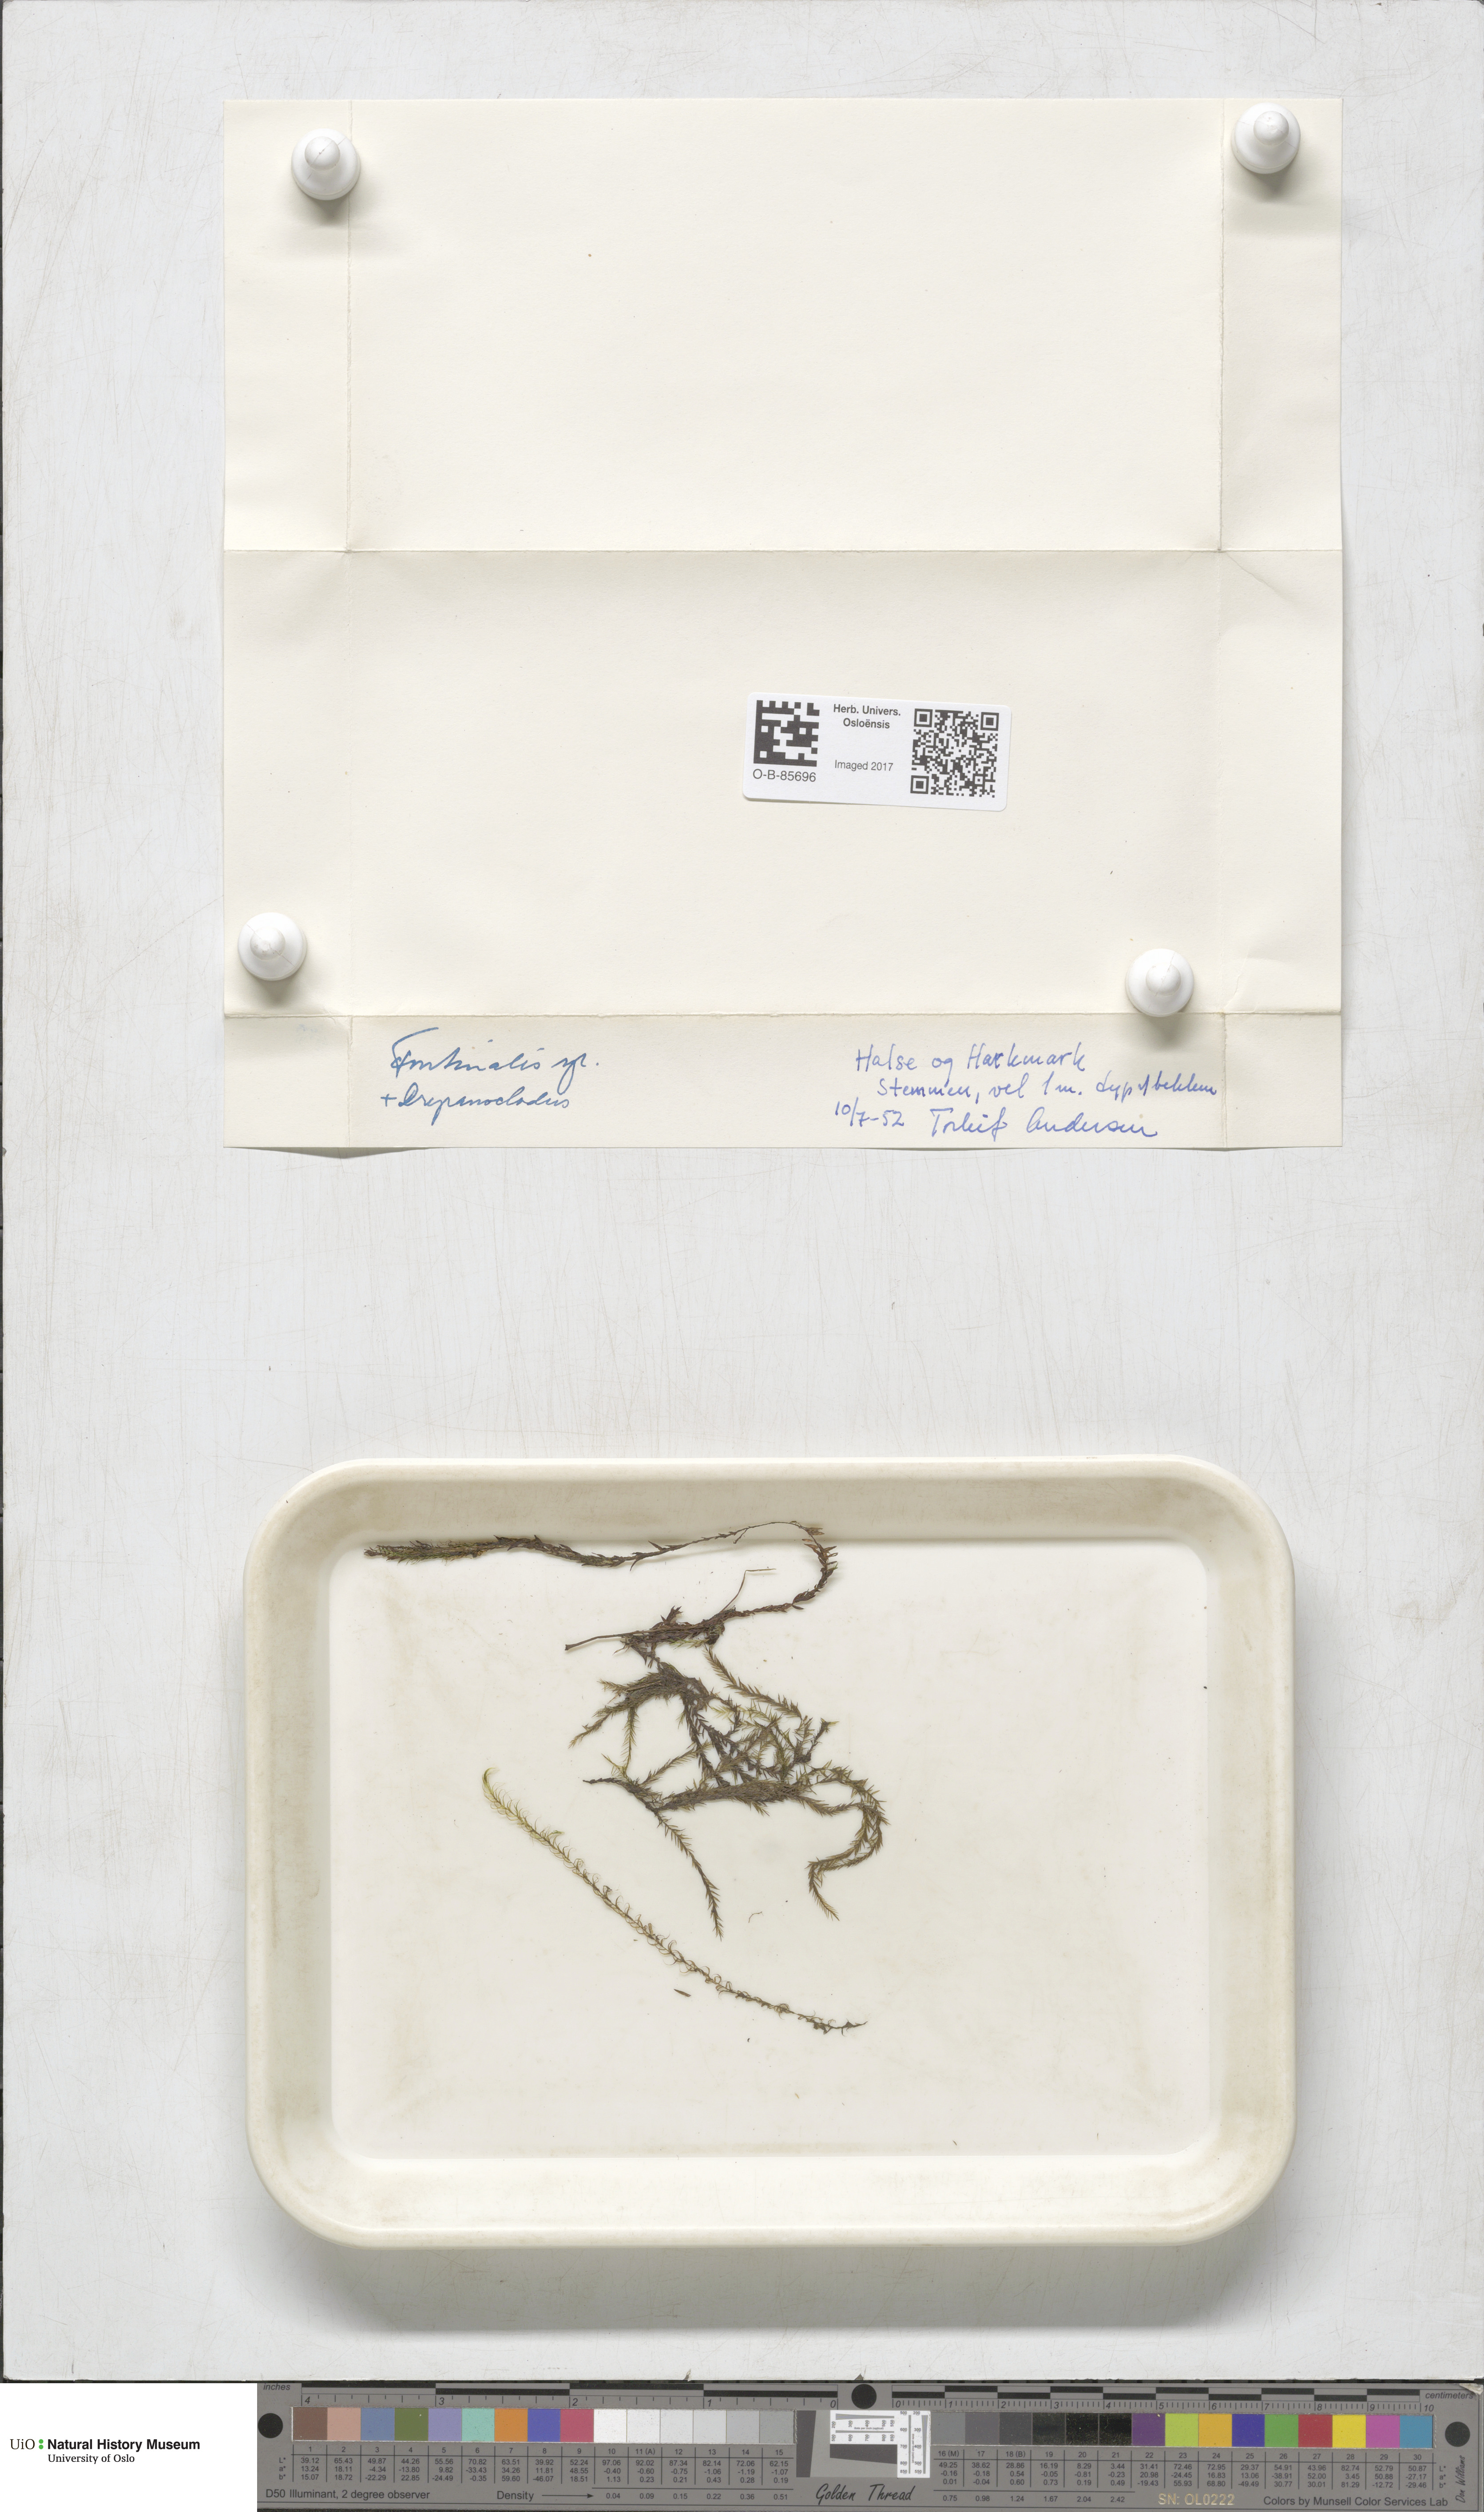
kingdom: Plantae
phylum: Bryophyta
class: Bryopsida
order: Hypnales
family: Fontinalaceae
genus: Fontinalis
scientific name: Fontinalis
